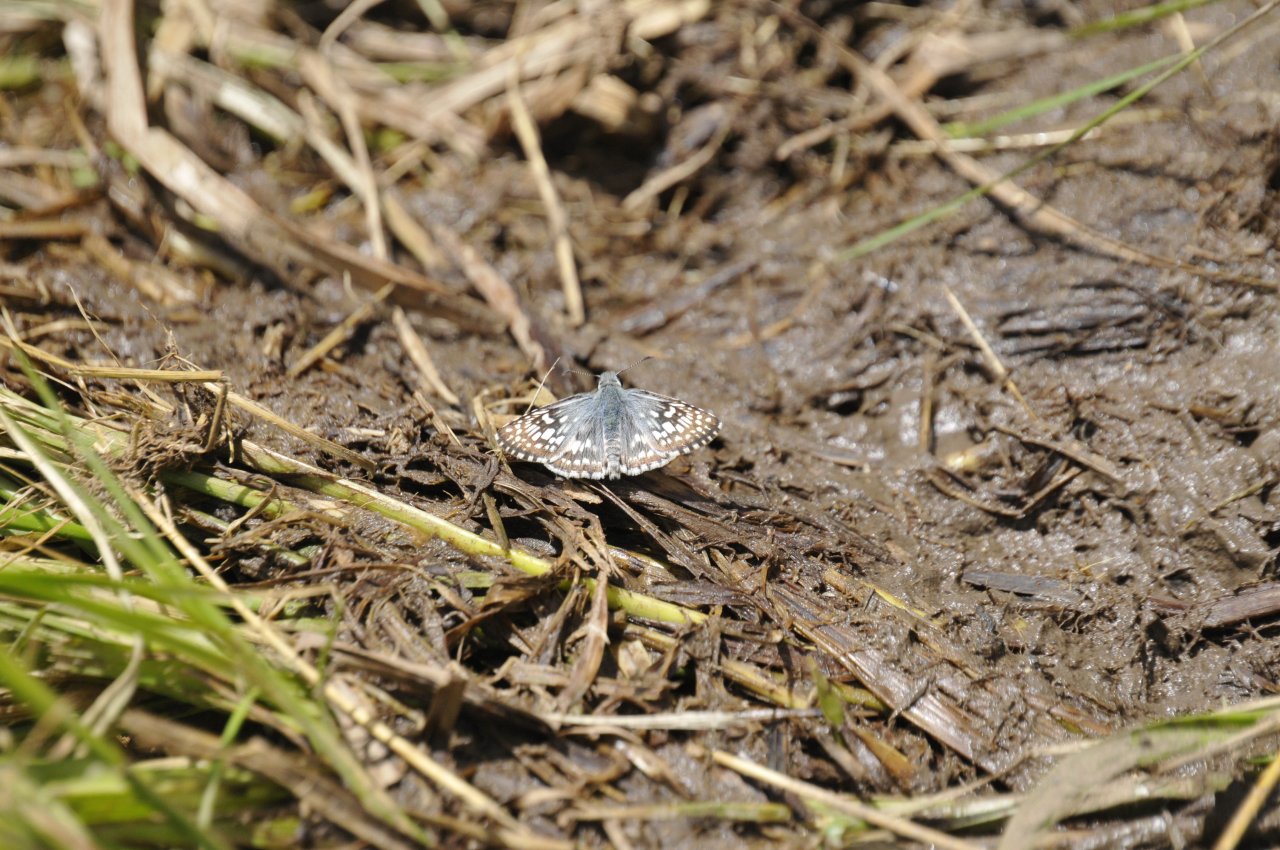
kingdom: Animalia
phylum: Arthropoda
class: Insecta
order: Lepidoptera
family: Hesperiidae
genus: Pyrgus
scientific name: Pyrgus communis
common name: Common Checkered-Skipper
